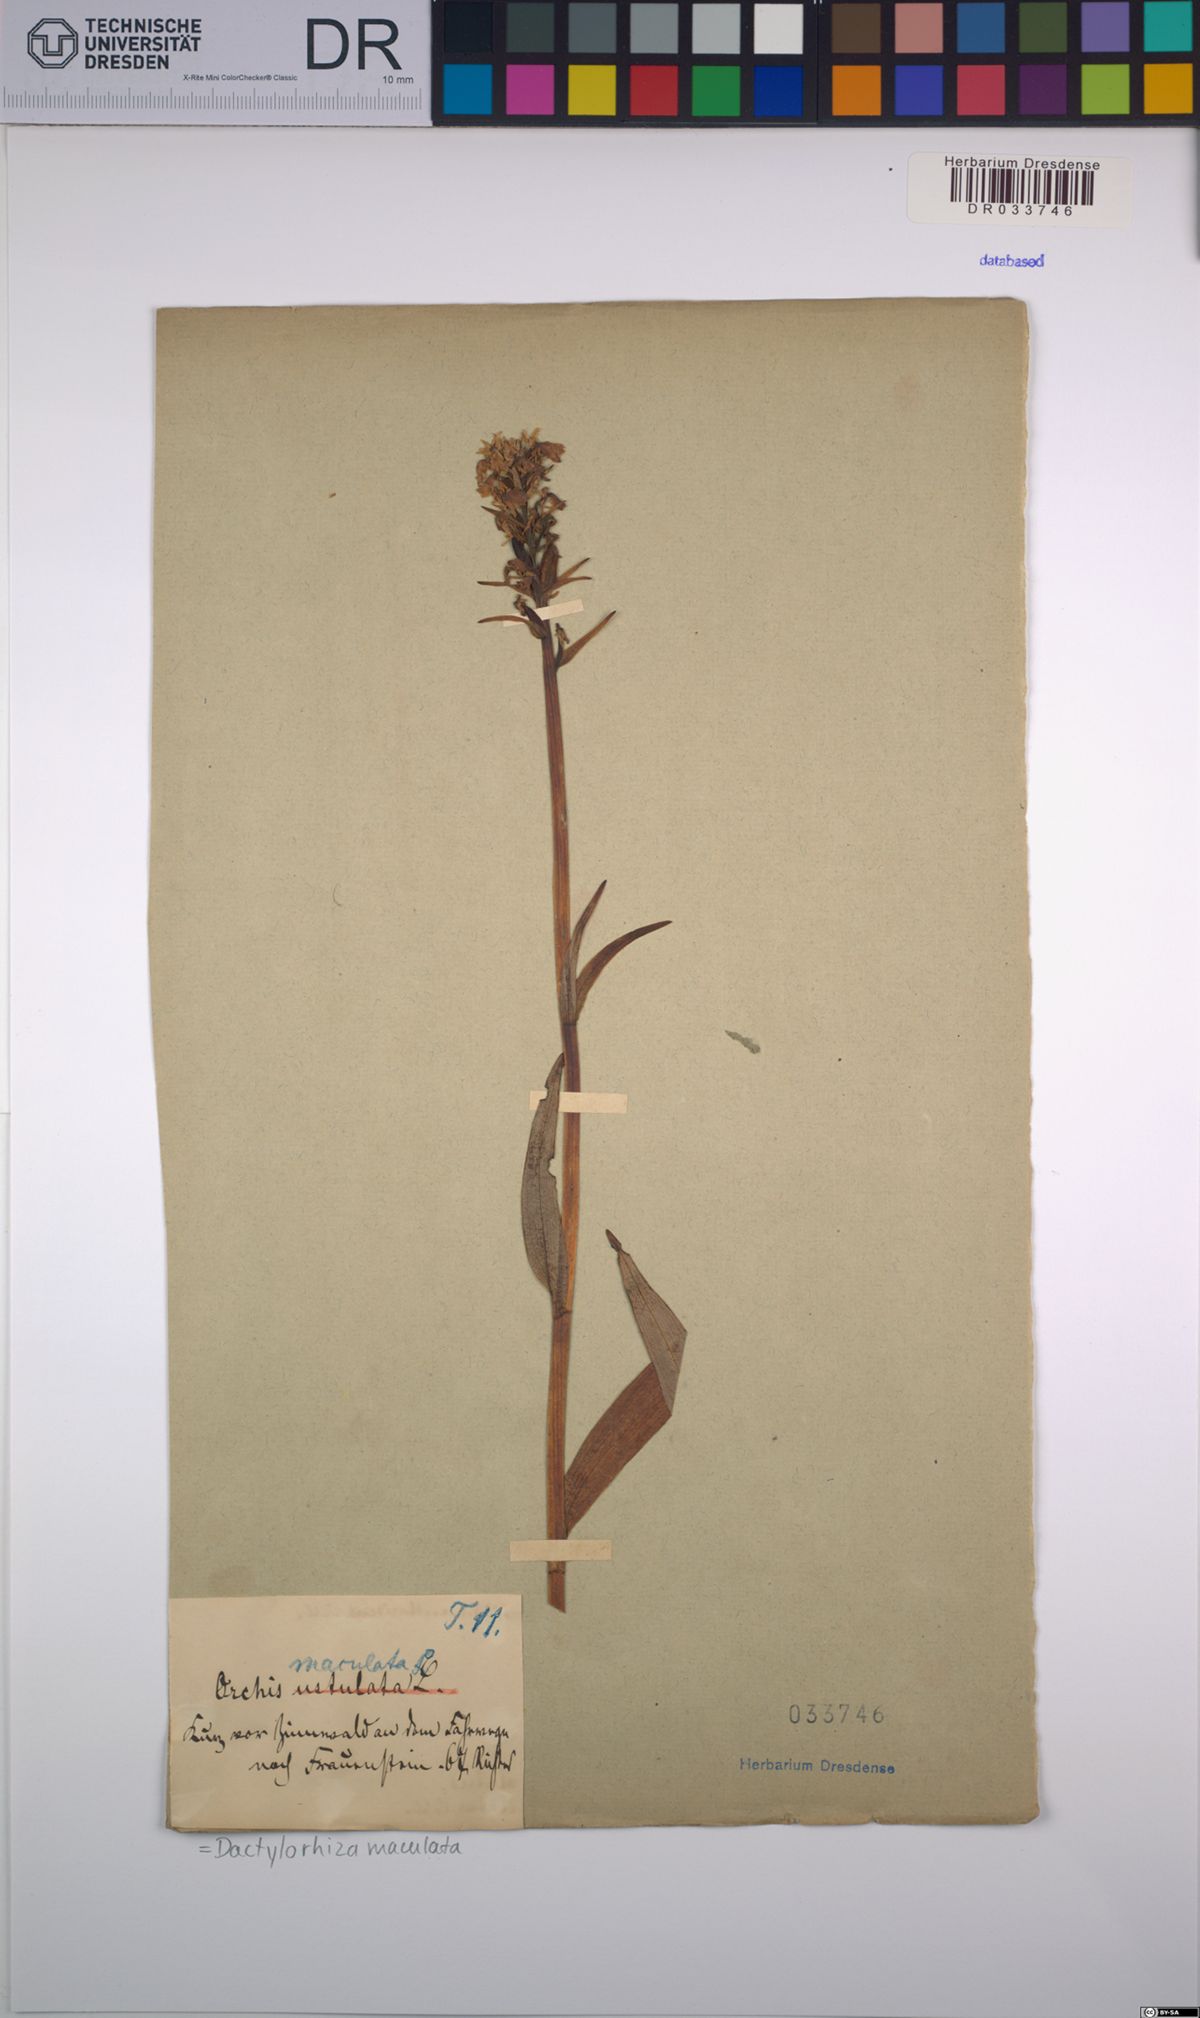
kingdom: Plantae
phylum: Tracheophyta
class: Liliopsida
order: Asparagales
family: Orchidaceae
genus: Dactylorhiza
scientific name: Dactylorhiza maculata
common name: Heath spotted-orchid
